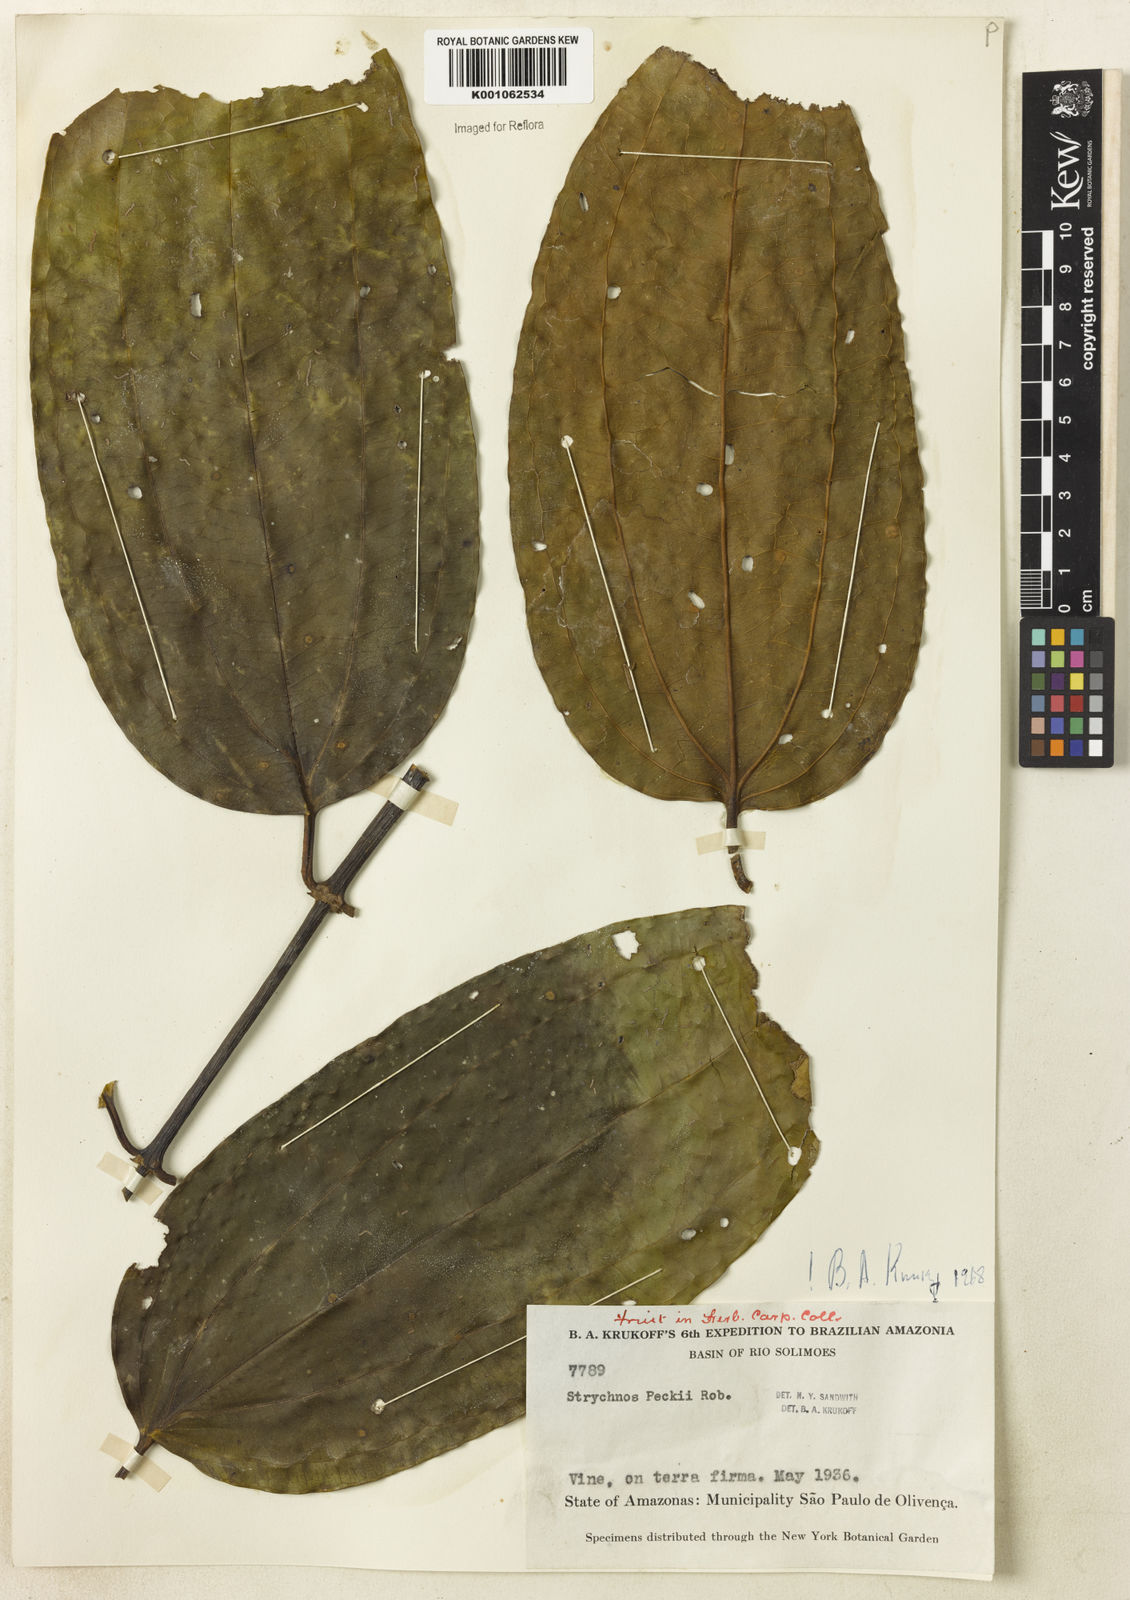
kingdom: Plantae
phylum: Tracheophyta
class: Magnoliopsida
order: Gentianales
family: Loganiaceae
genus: Strychnos
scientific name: Strychnos peckii
